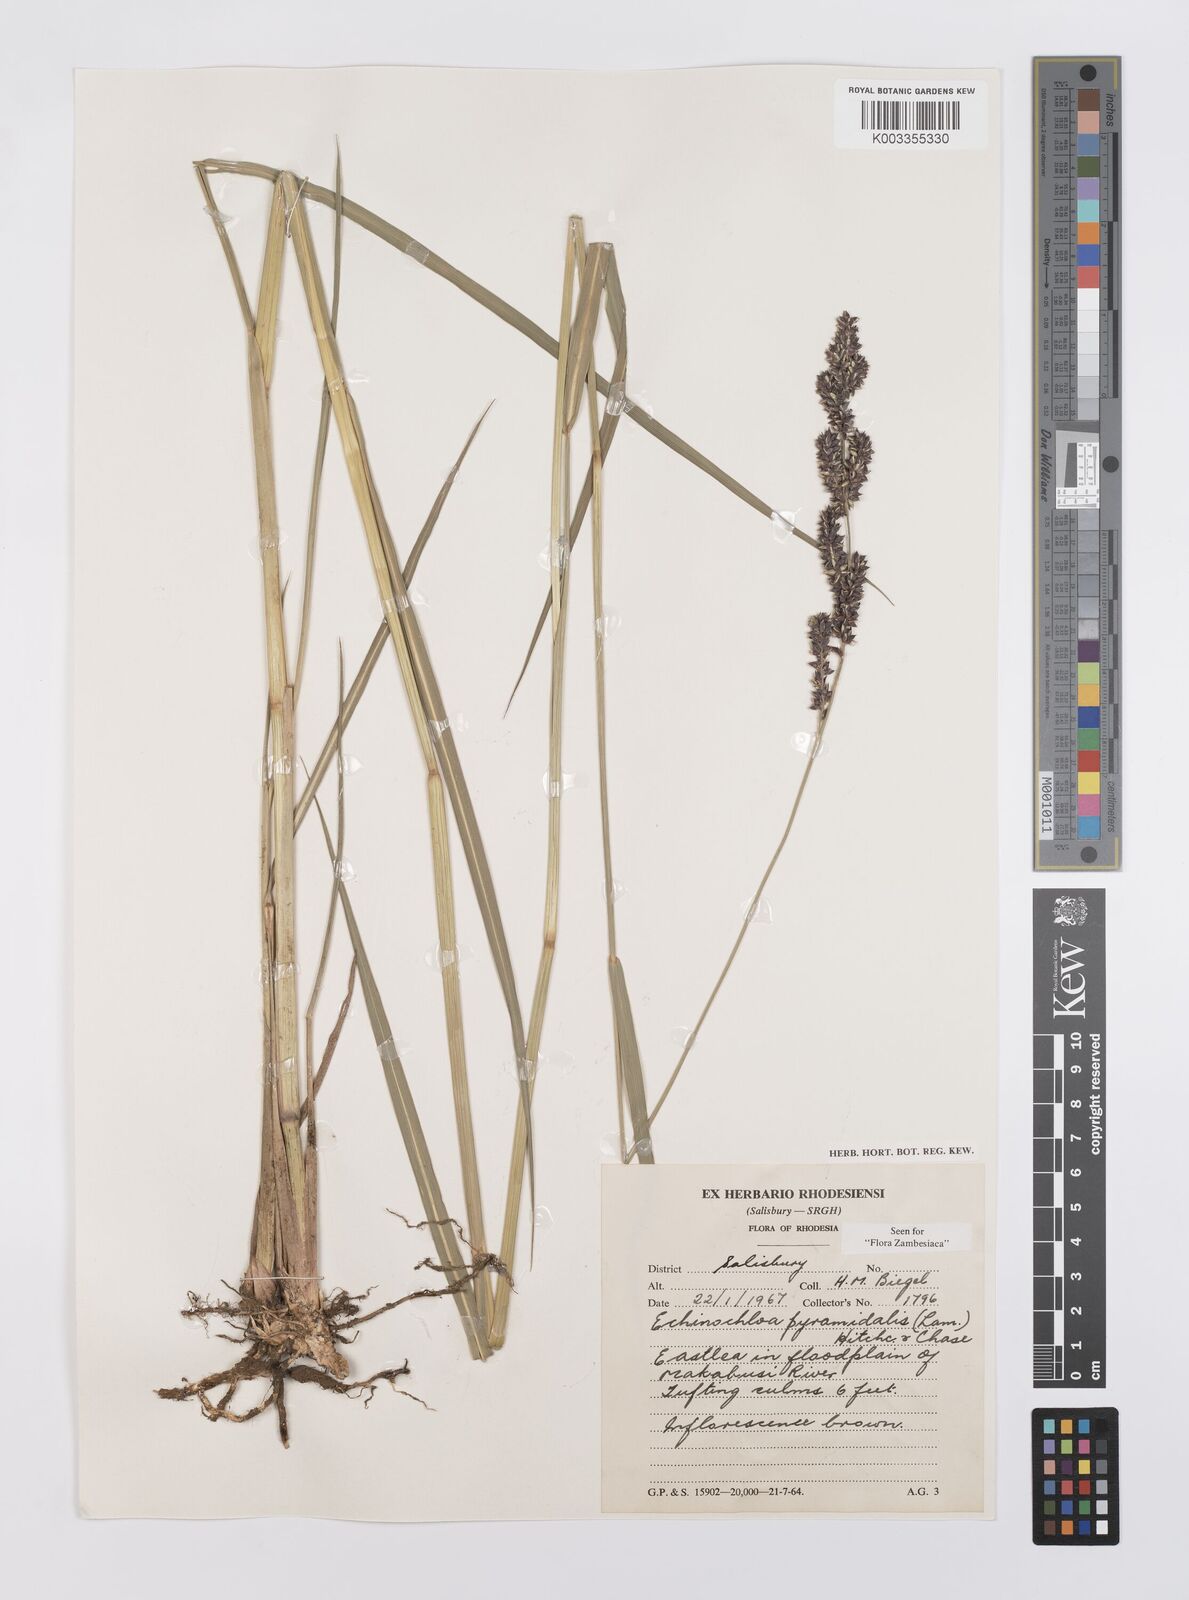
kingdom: Plantae
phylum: Tracheophyta
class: Liliopsida
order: Poales
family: Poaceae
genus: Echinochloa
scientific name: Echinochloa pyramidalis
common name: Antelope grass
